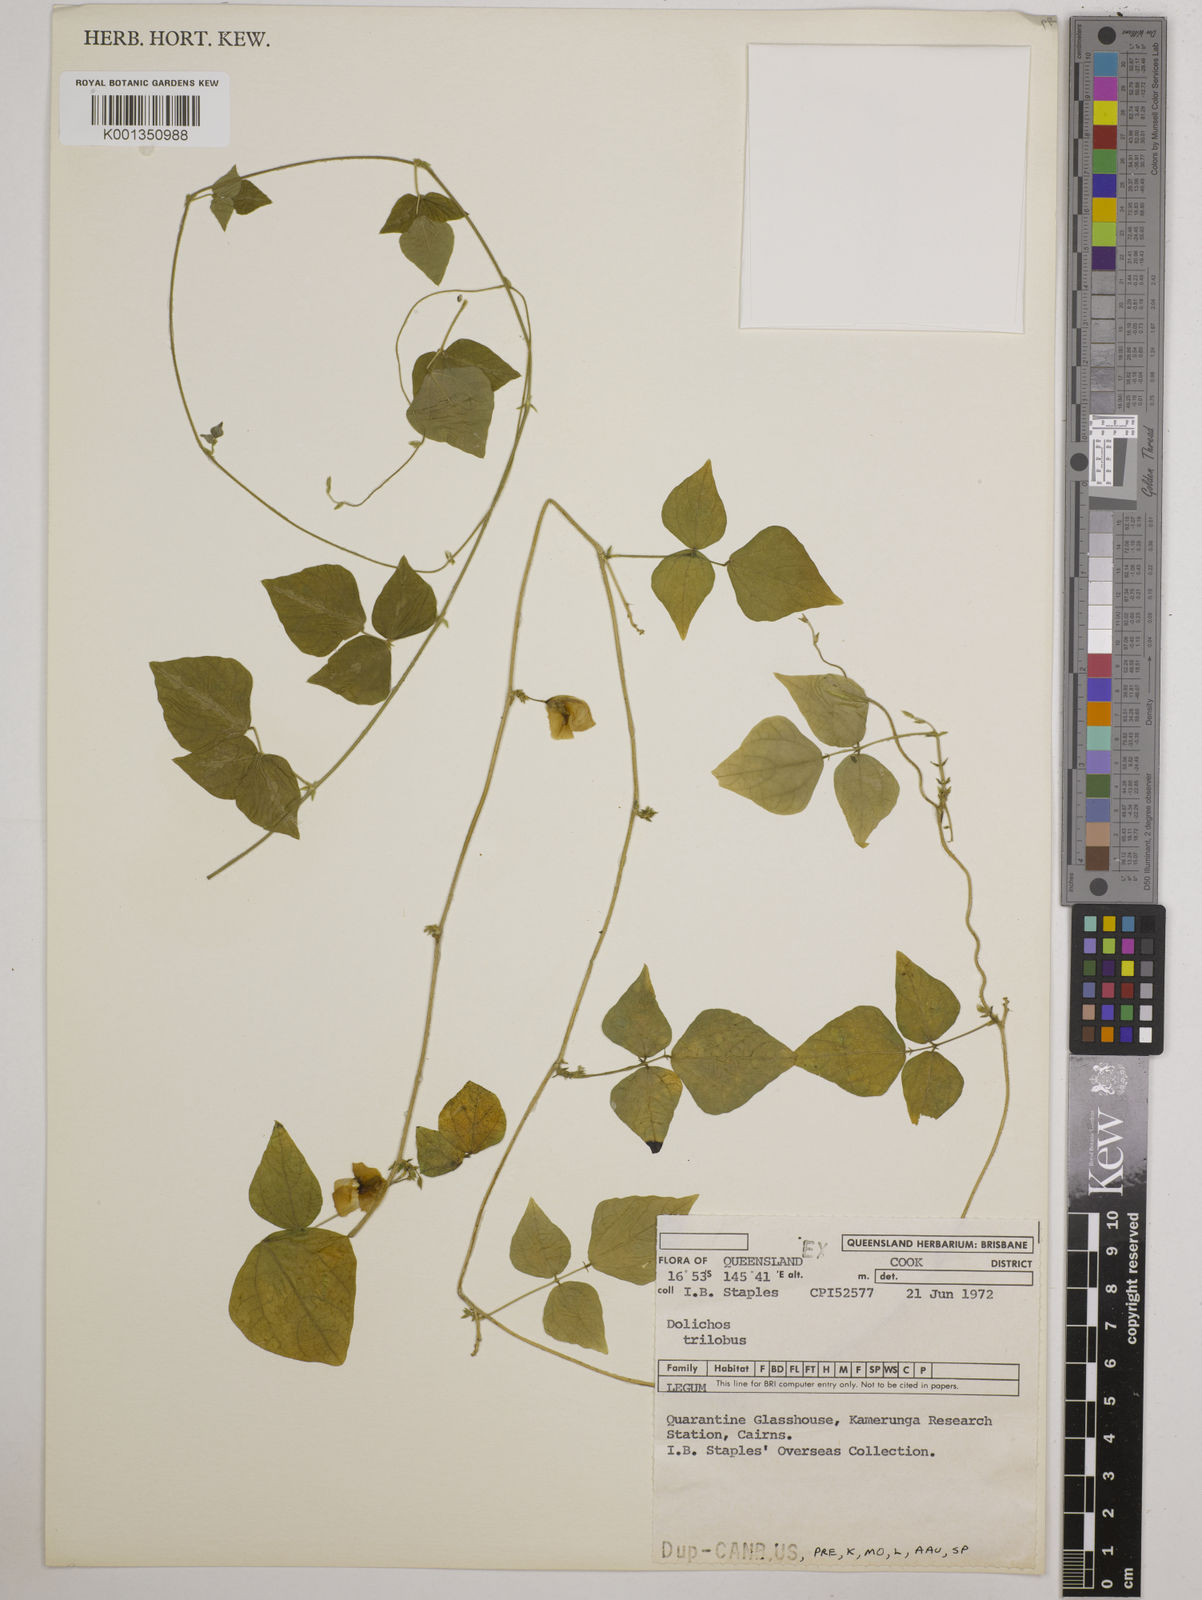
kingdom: Plantae
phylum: Tracheophyta
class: Magnoliopsida
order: Fabales
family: Fabaceae
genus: Dolichos
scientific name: Dolichos
